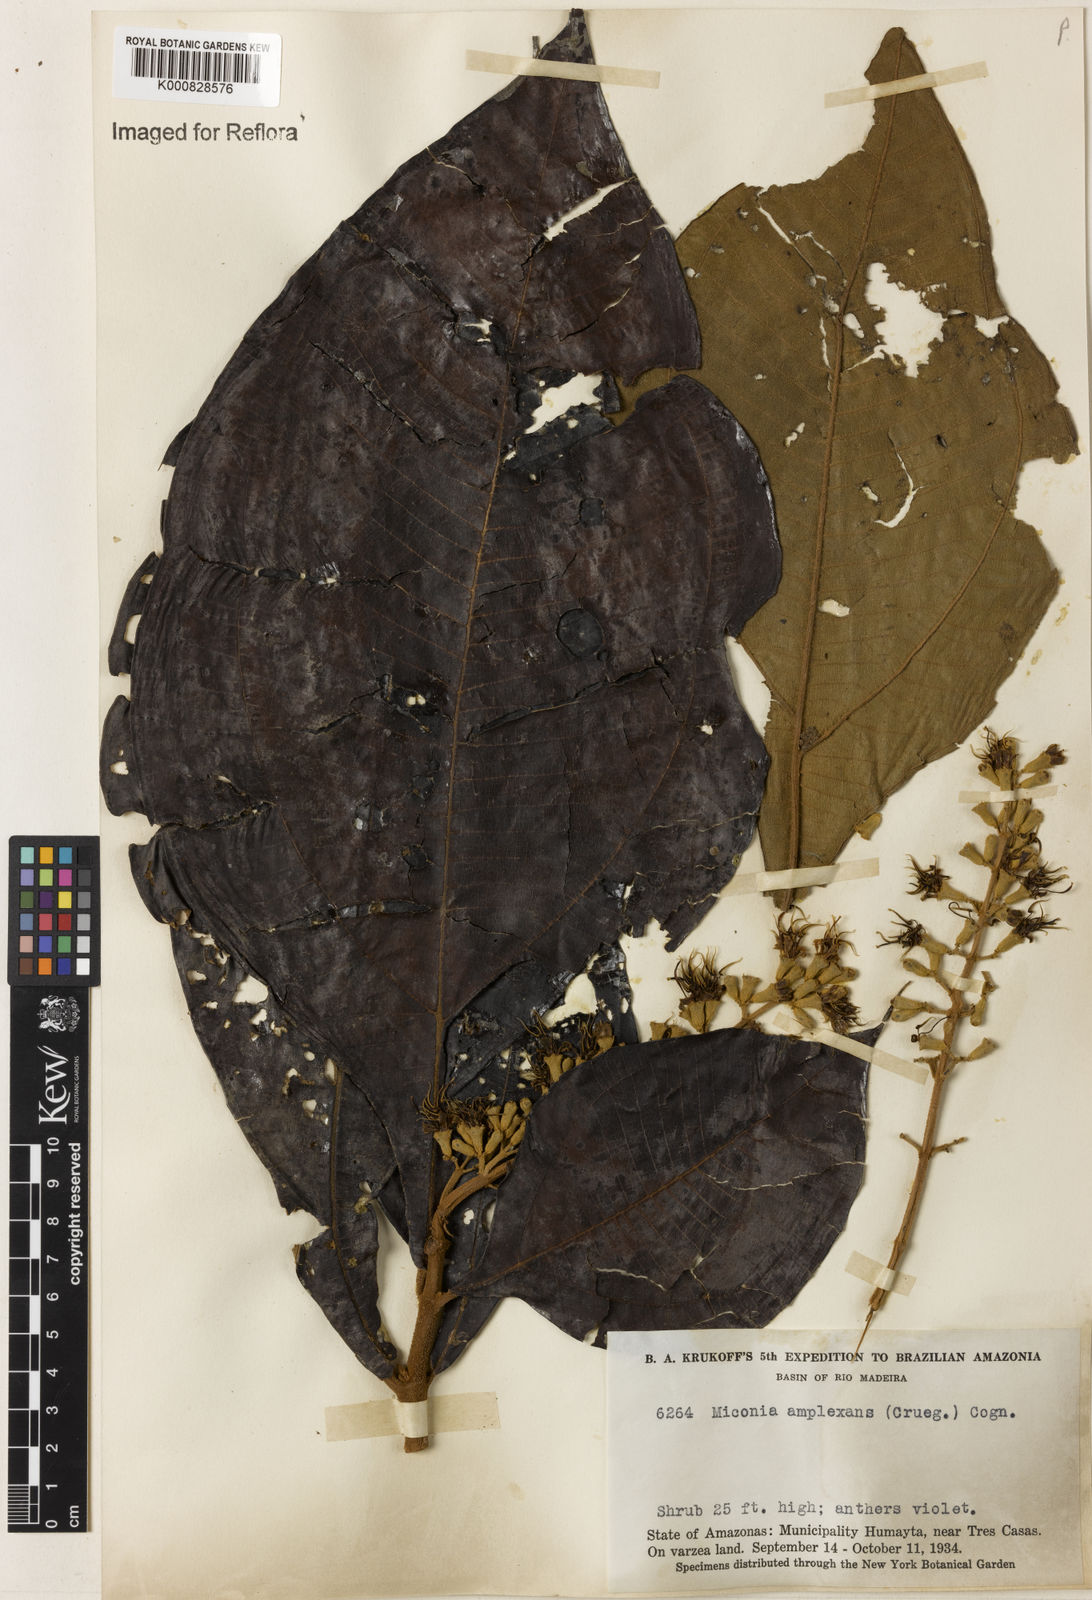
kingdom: Plantae
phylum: Tracheophyta
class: Magnoliopsida
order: Myrtales
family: Melastomataceae
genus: Miconia
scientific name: Miconia tomentosa
